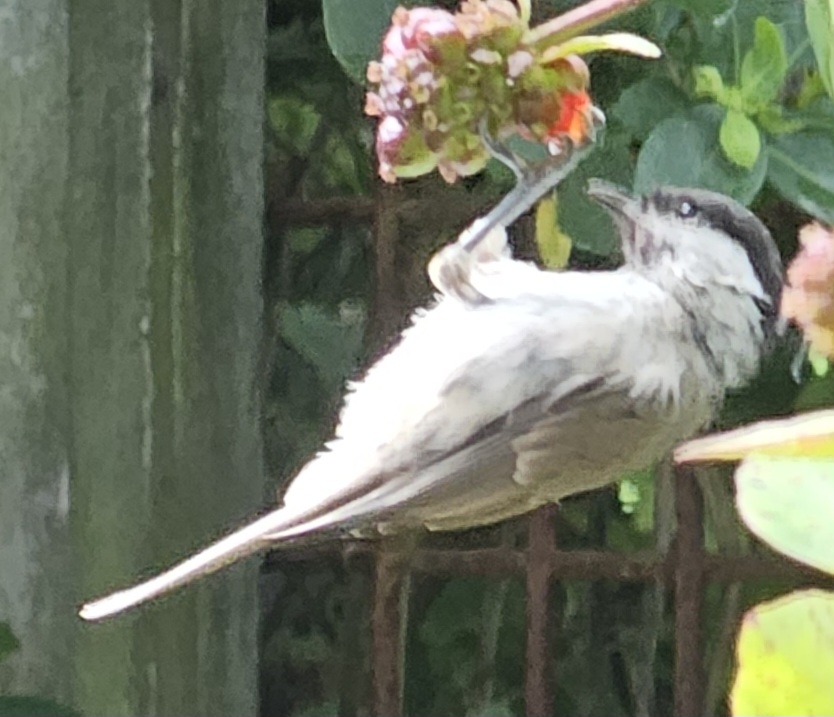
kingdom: Animalia
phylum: Chordata
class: Aves
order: Passeriformes
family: Paridae
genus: Poecile
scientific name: Poecile palustris
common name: Sumpmejse
